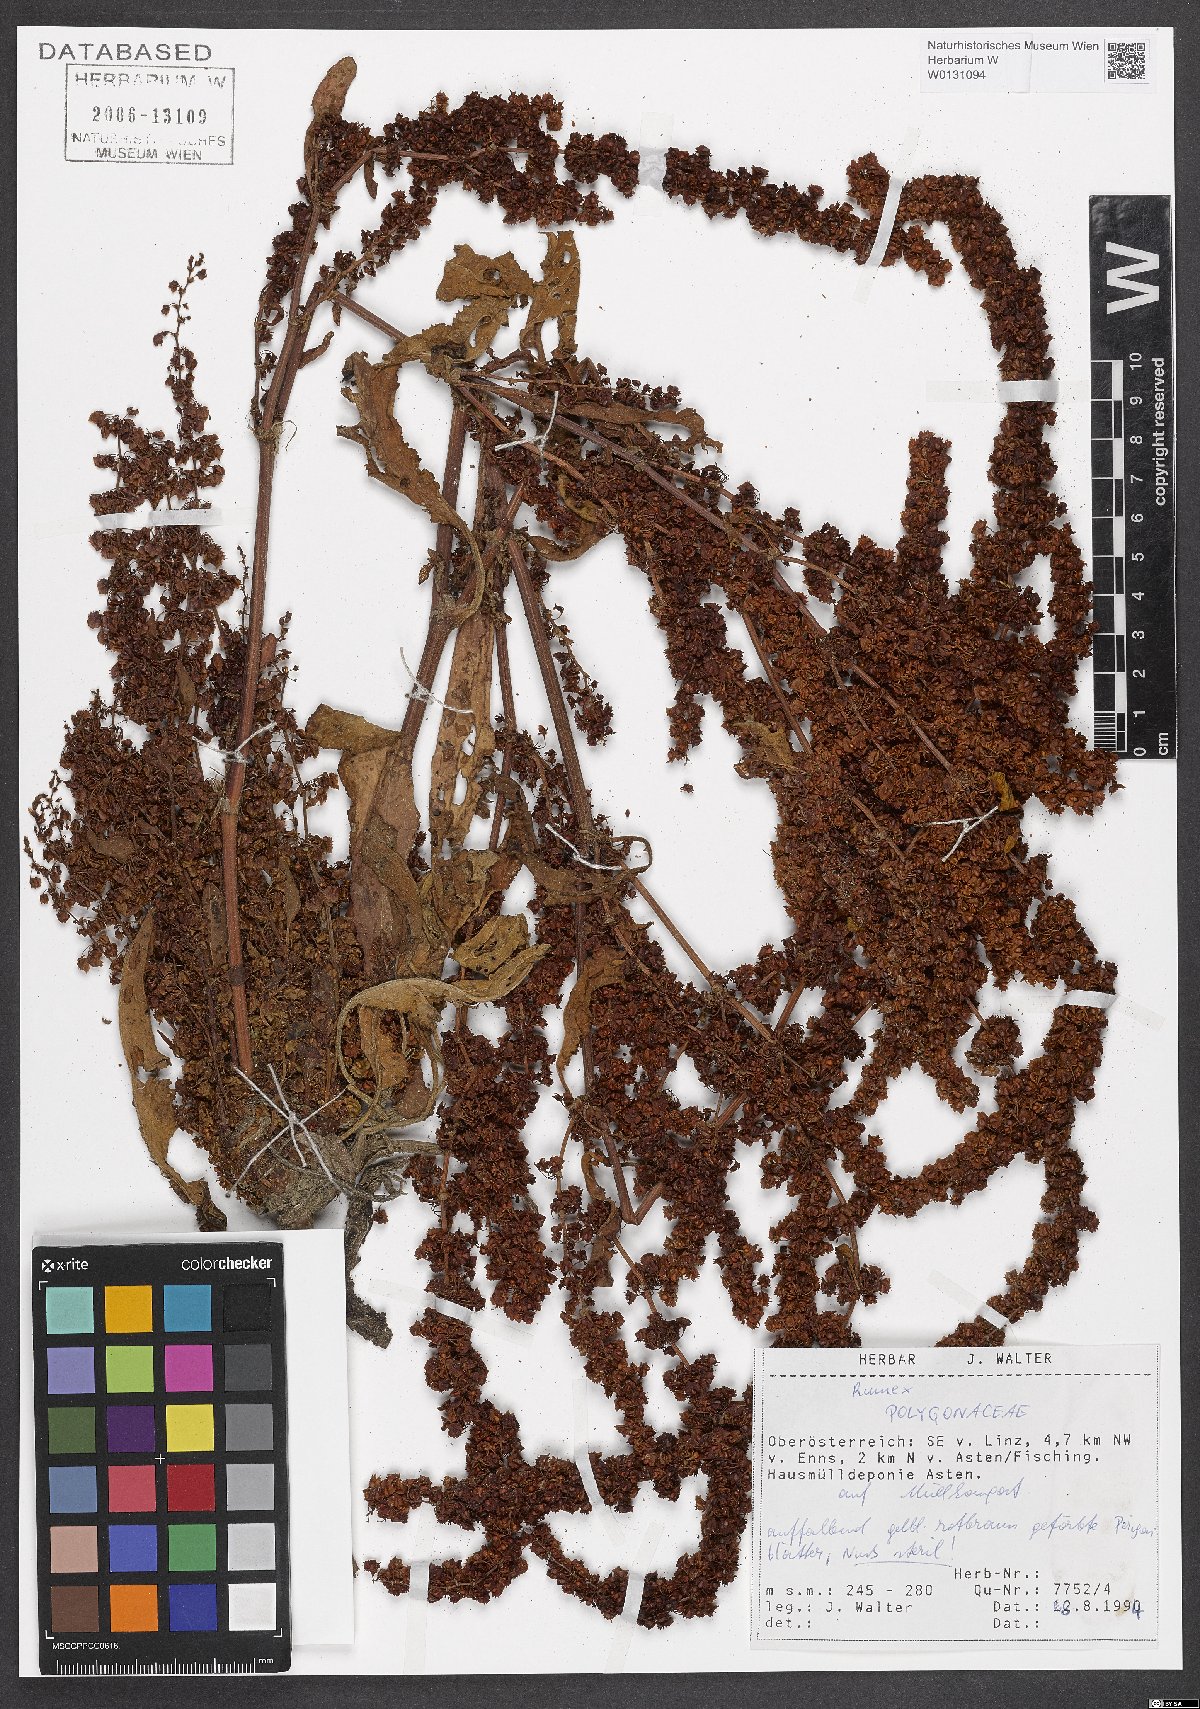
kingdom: Plantae
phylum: Tracheophyta
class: Magnoliopsida
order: Caryophyllales
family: Polygonaceae
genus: Rumex
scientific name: Rumex
